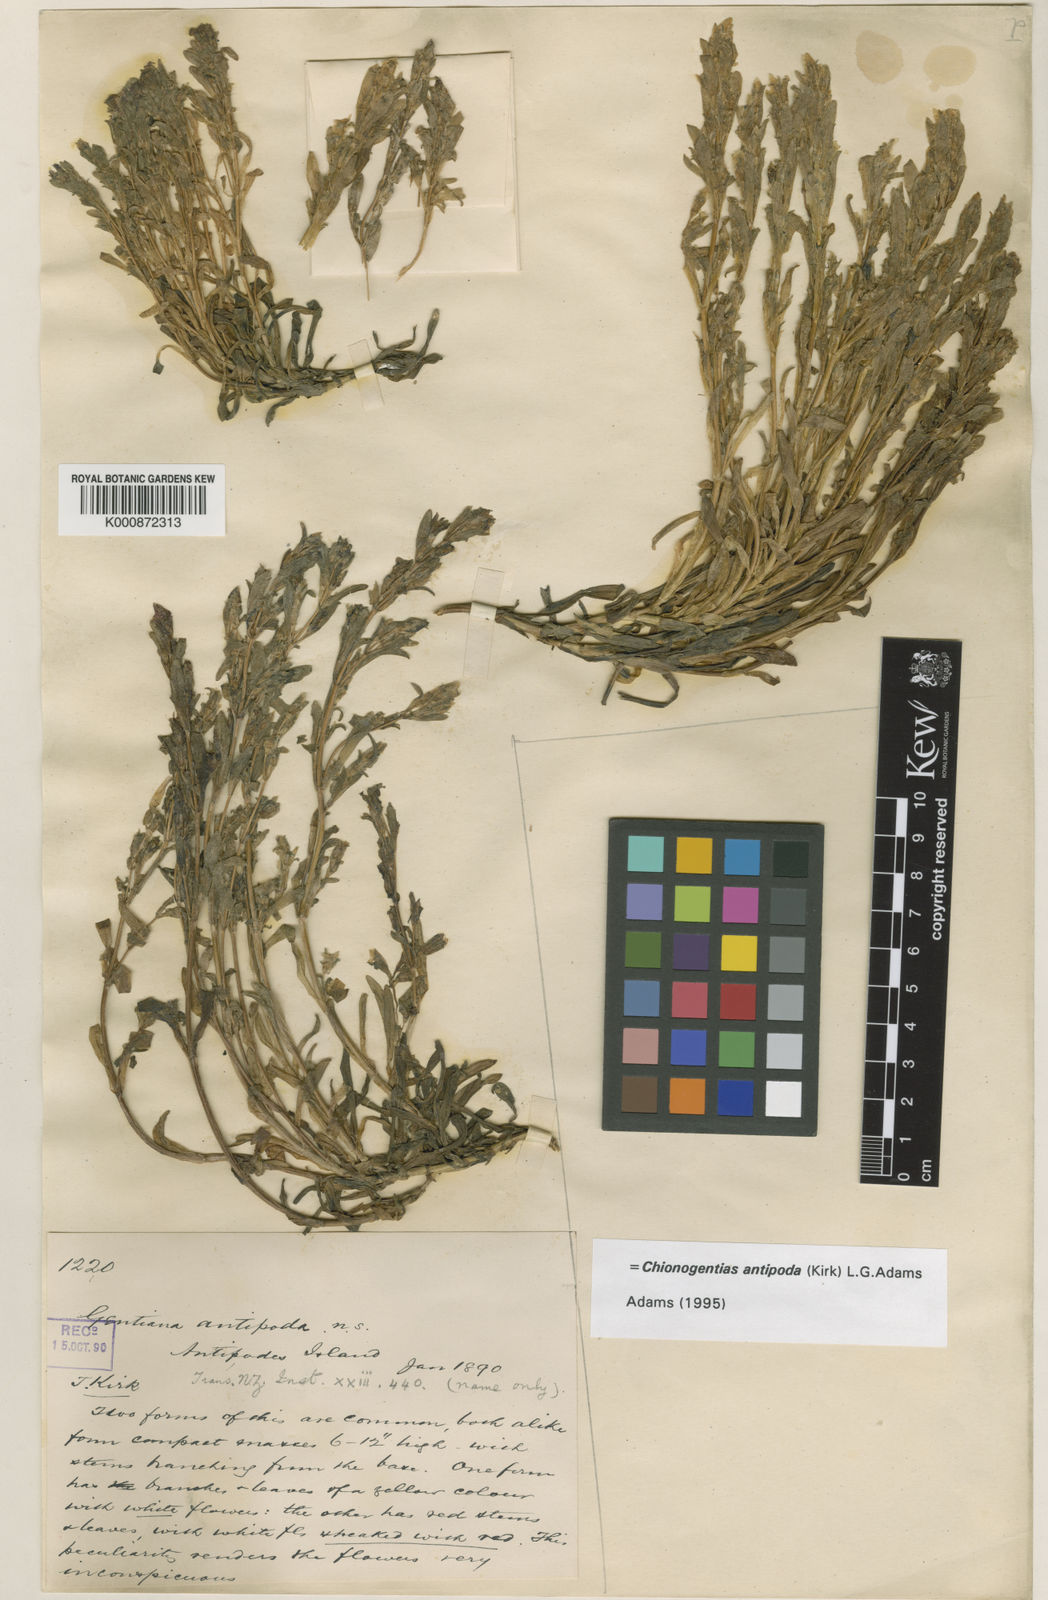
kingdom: Plantae
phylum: Tracheophyta
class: Magnoliopsida
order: Gentianales
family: Gentianaceae
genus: Gentianella
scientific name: Gentianella antipoda
